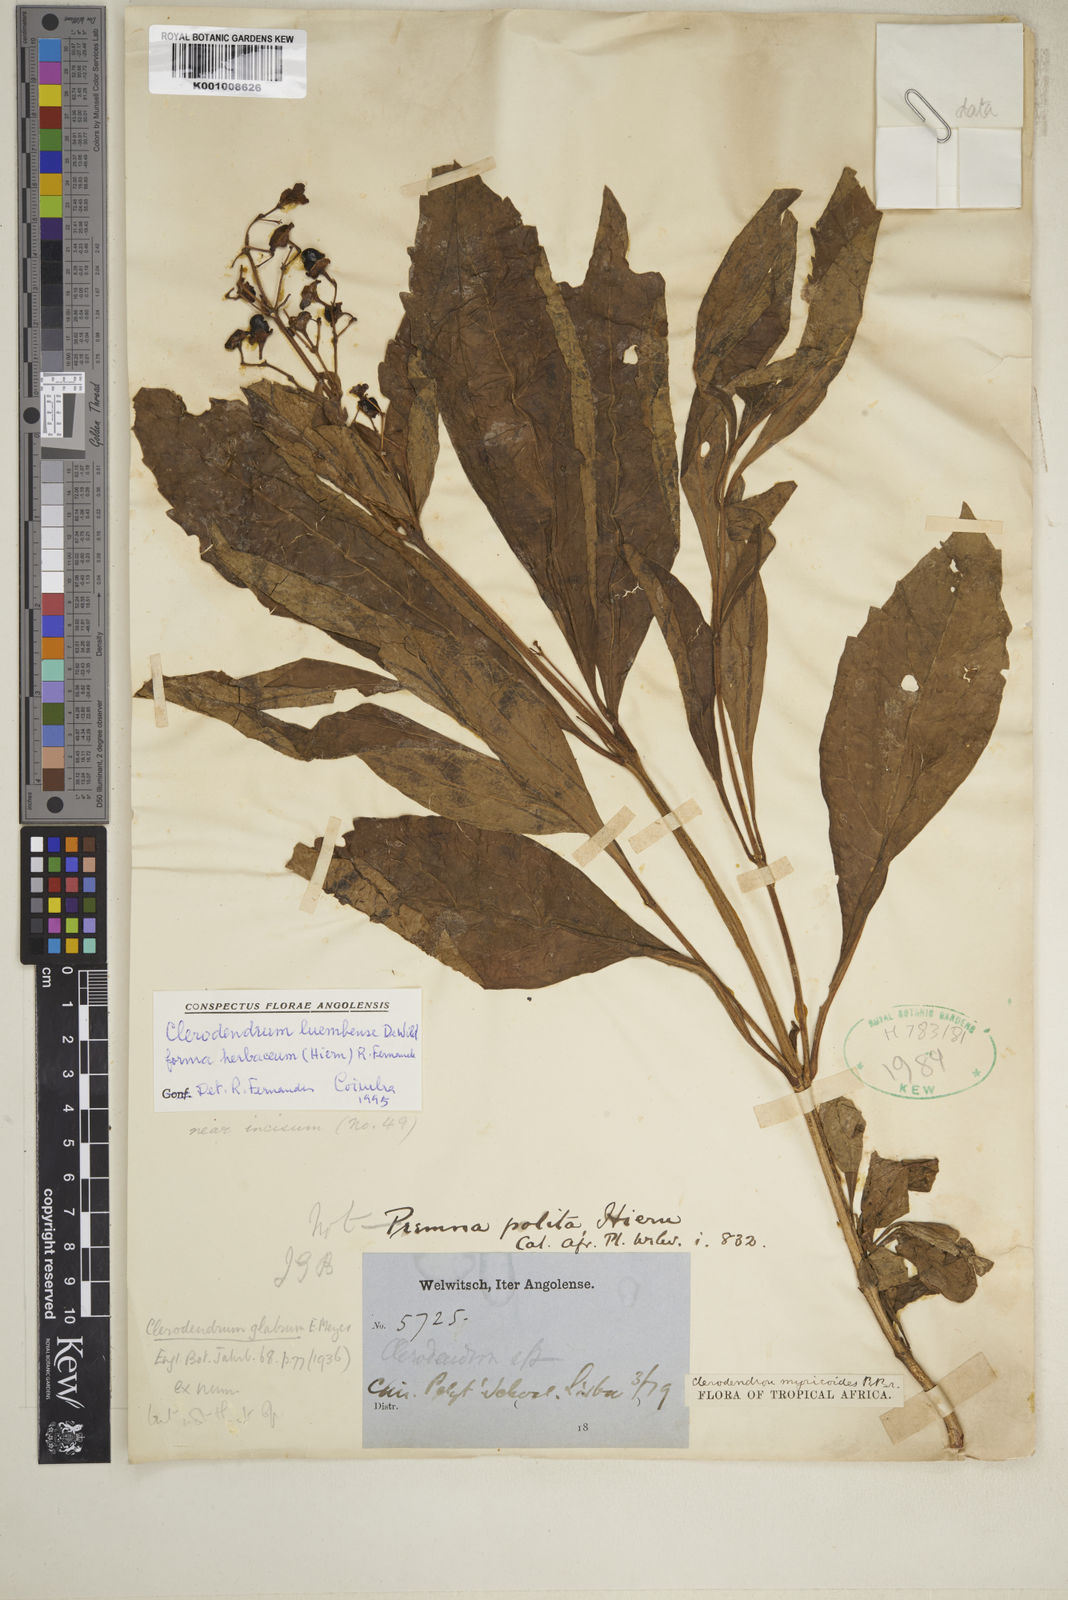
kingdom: Plantae
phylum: Tracheophyta
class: Magnoliopsida
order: Lamiales
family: Lamiaceae
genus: Rotheca
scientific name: Rotheca luembensis
